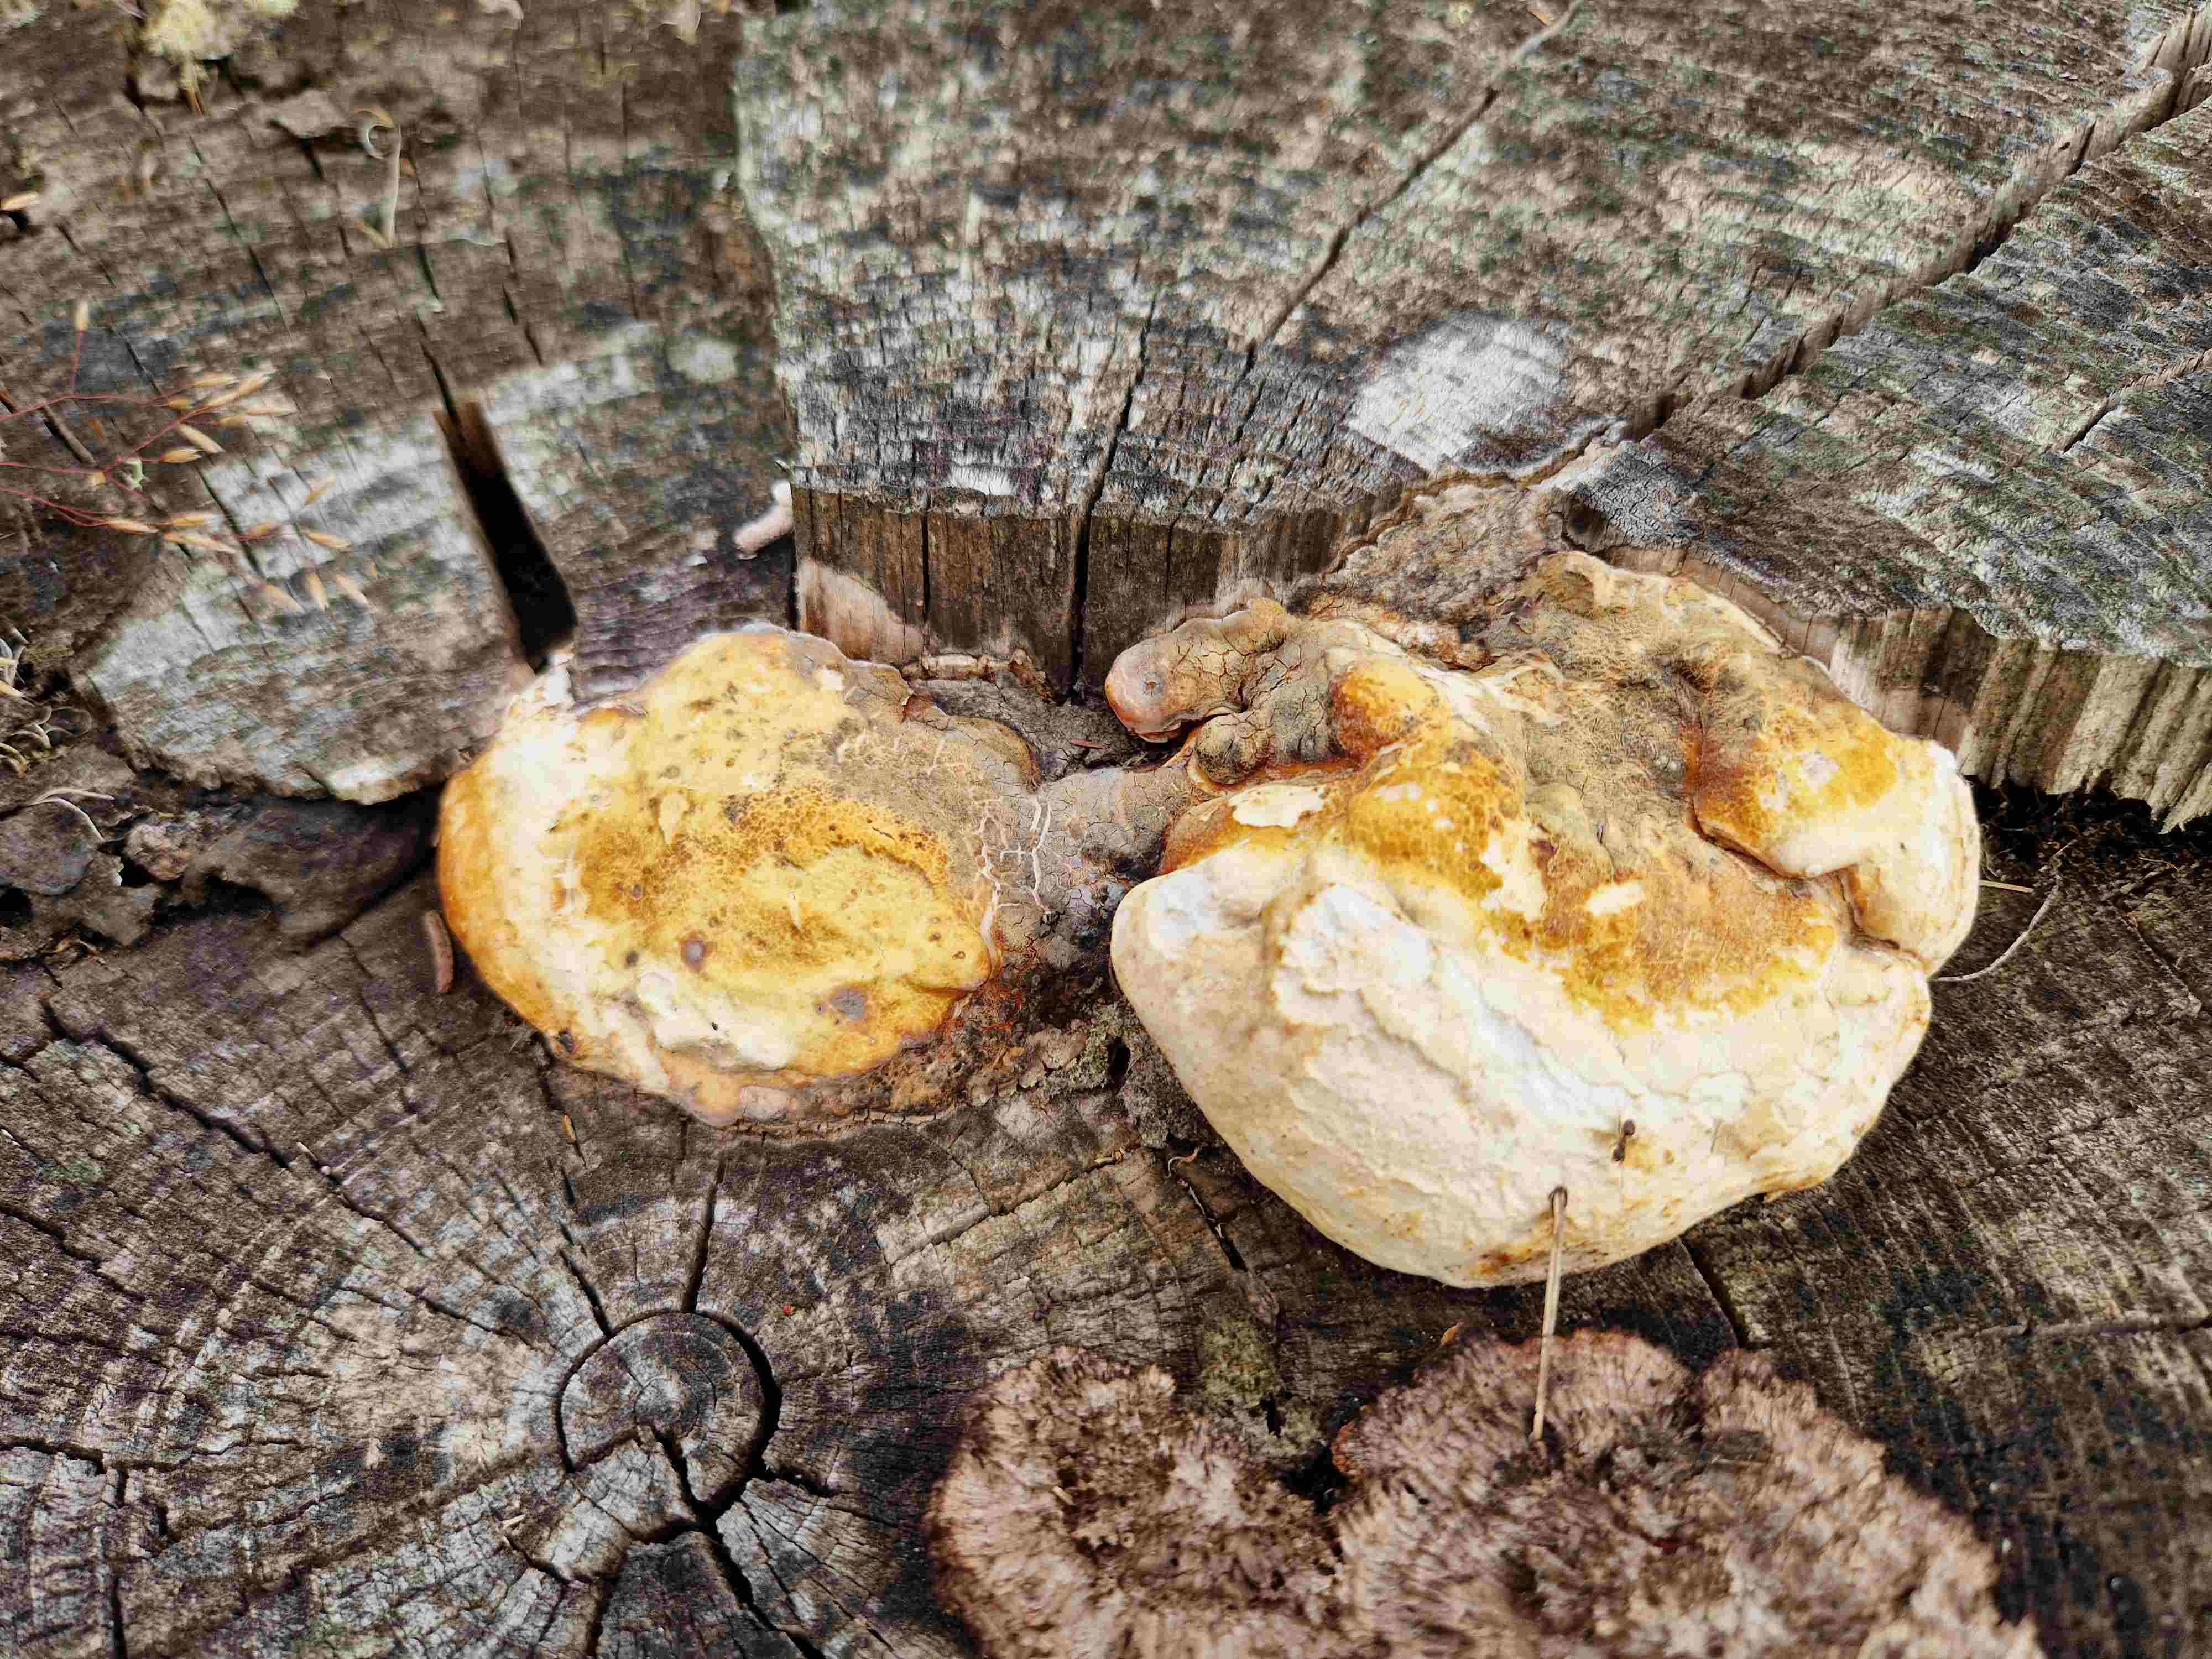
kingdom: Fungi
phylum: Basidiomycota
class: Agaricomycetes
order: Polyporales
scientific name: Polyporales
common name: poresvampordenen
